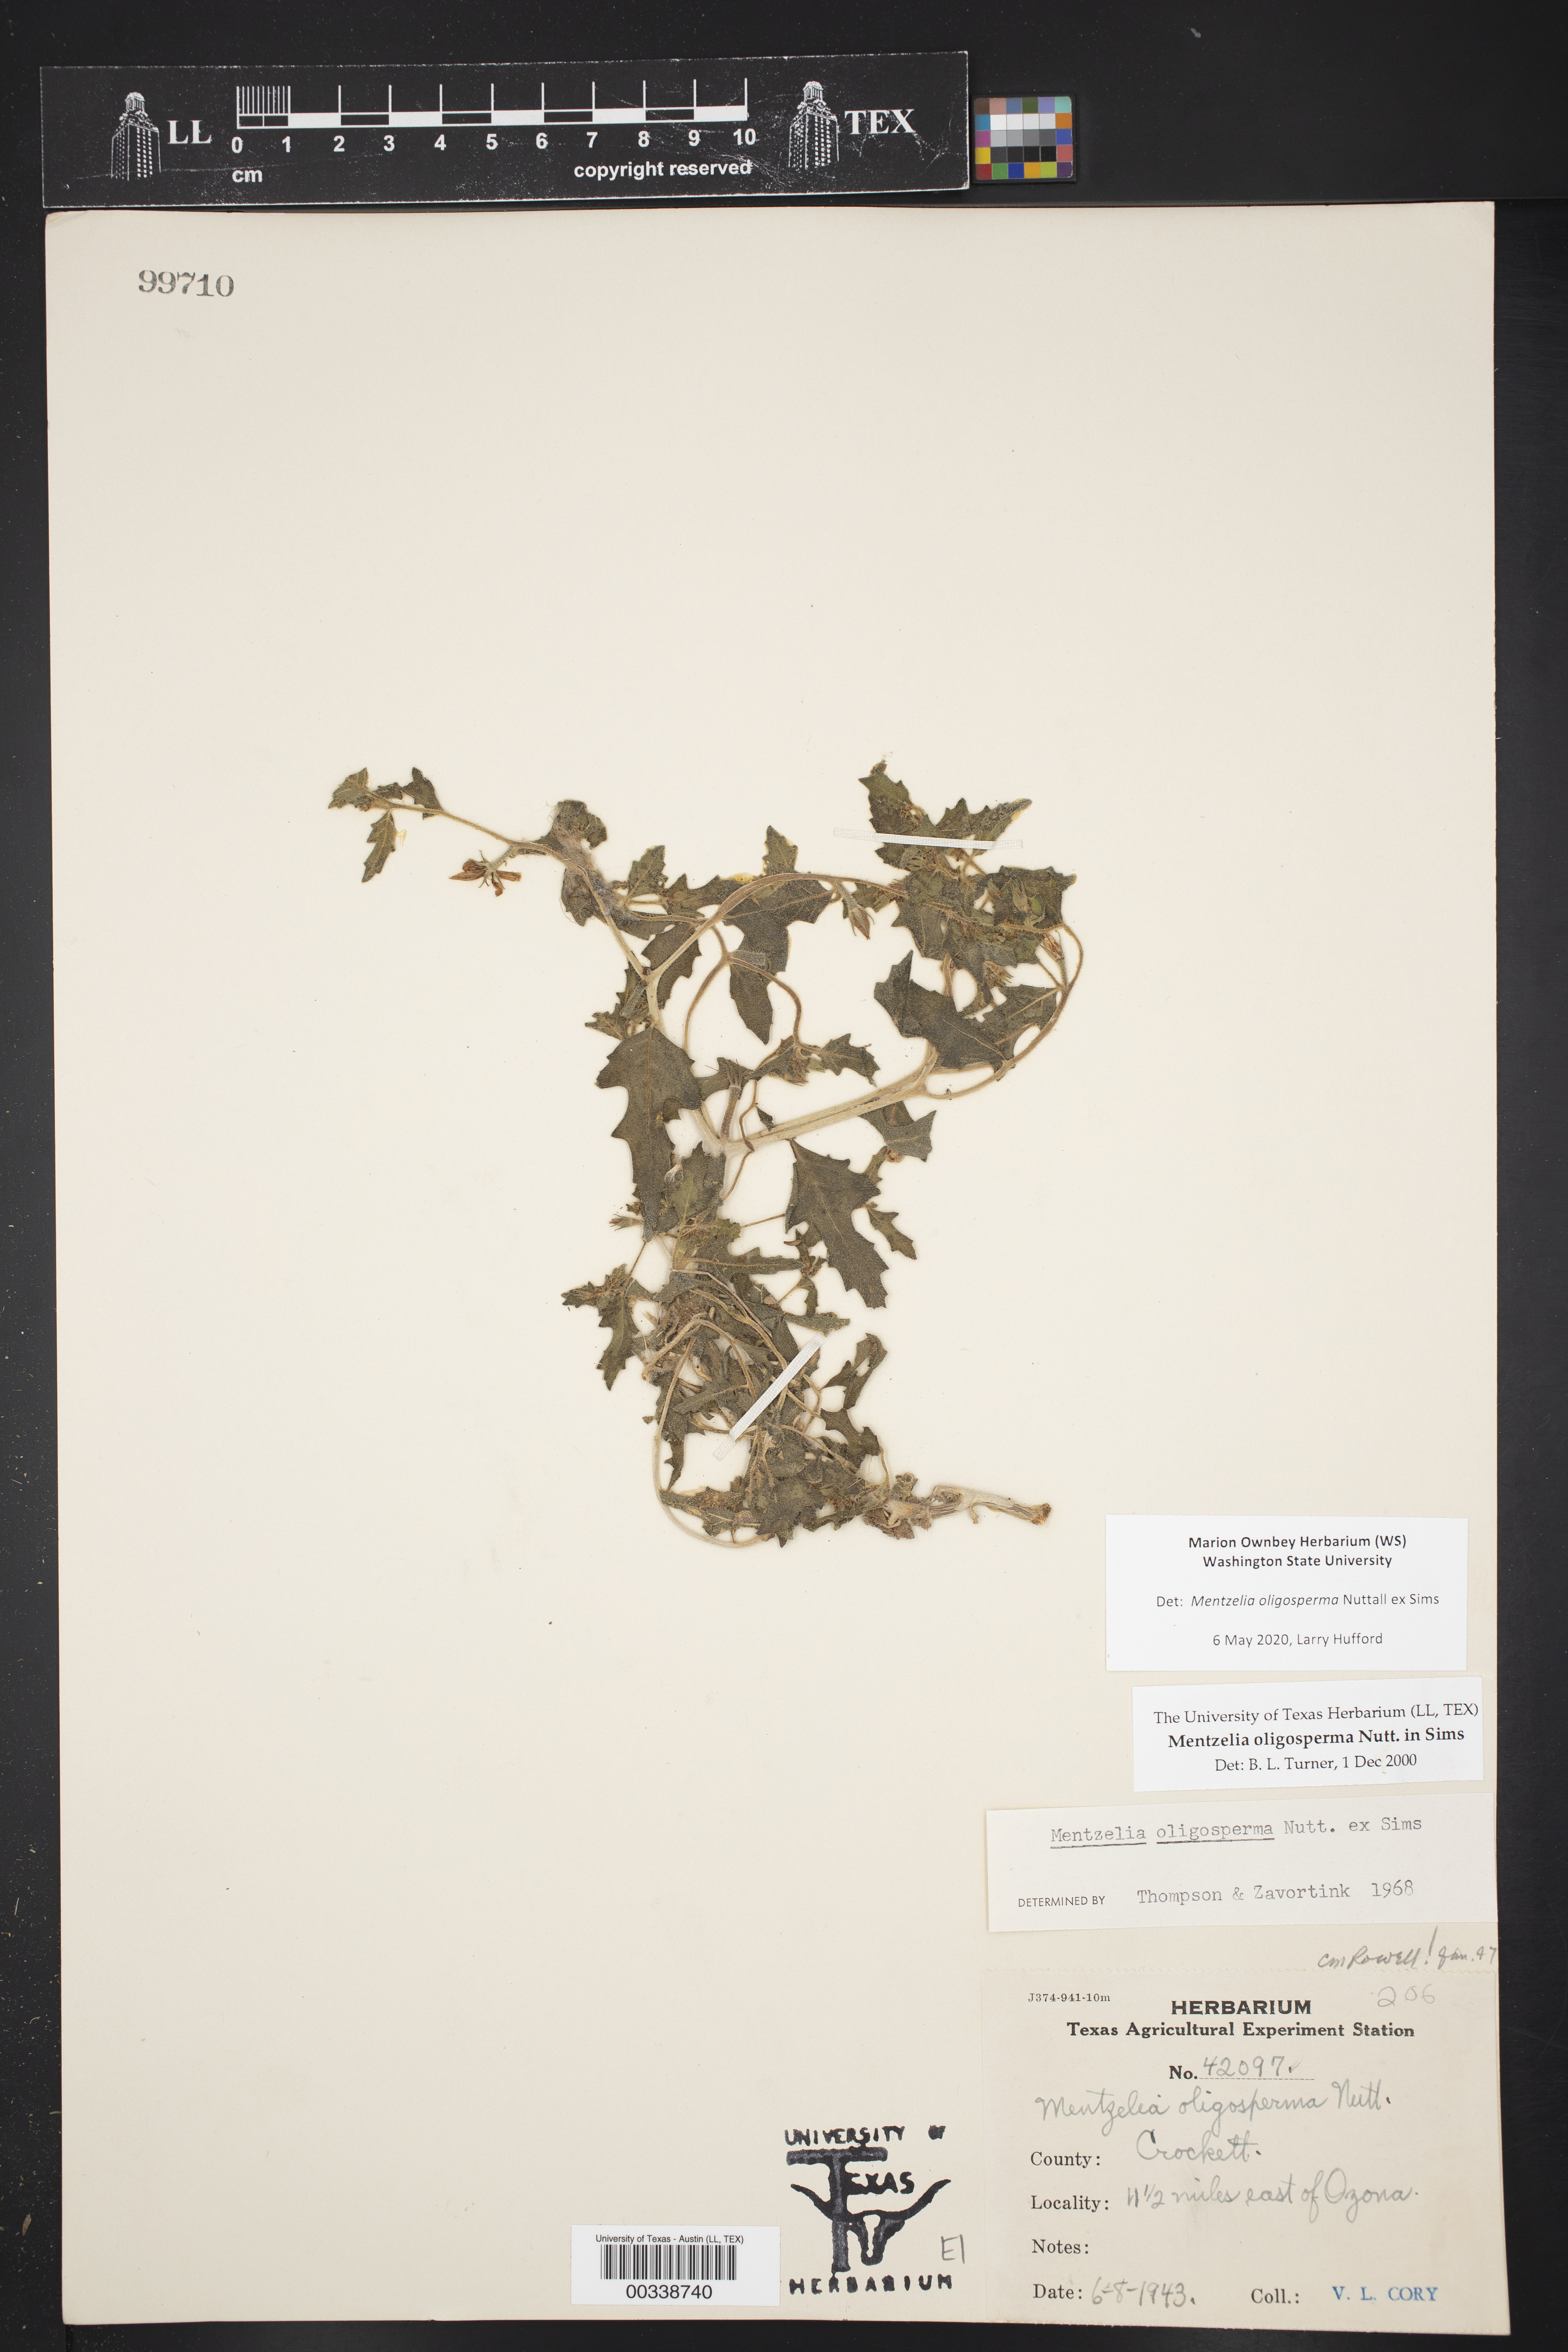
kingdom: Plantae
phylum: Tracheophyta
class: Magnoliopsida
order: Cornales
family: Loasaceae
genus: Mentzelia
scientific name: Mentzelia oligosperma
